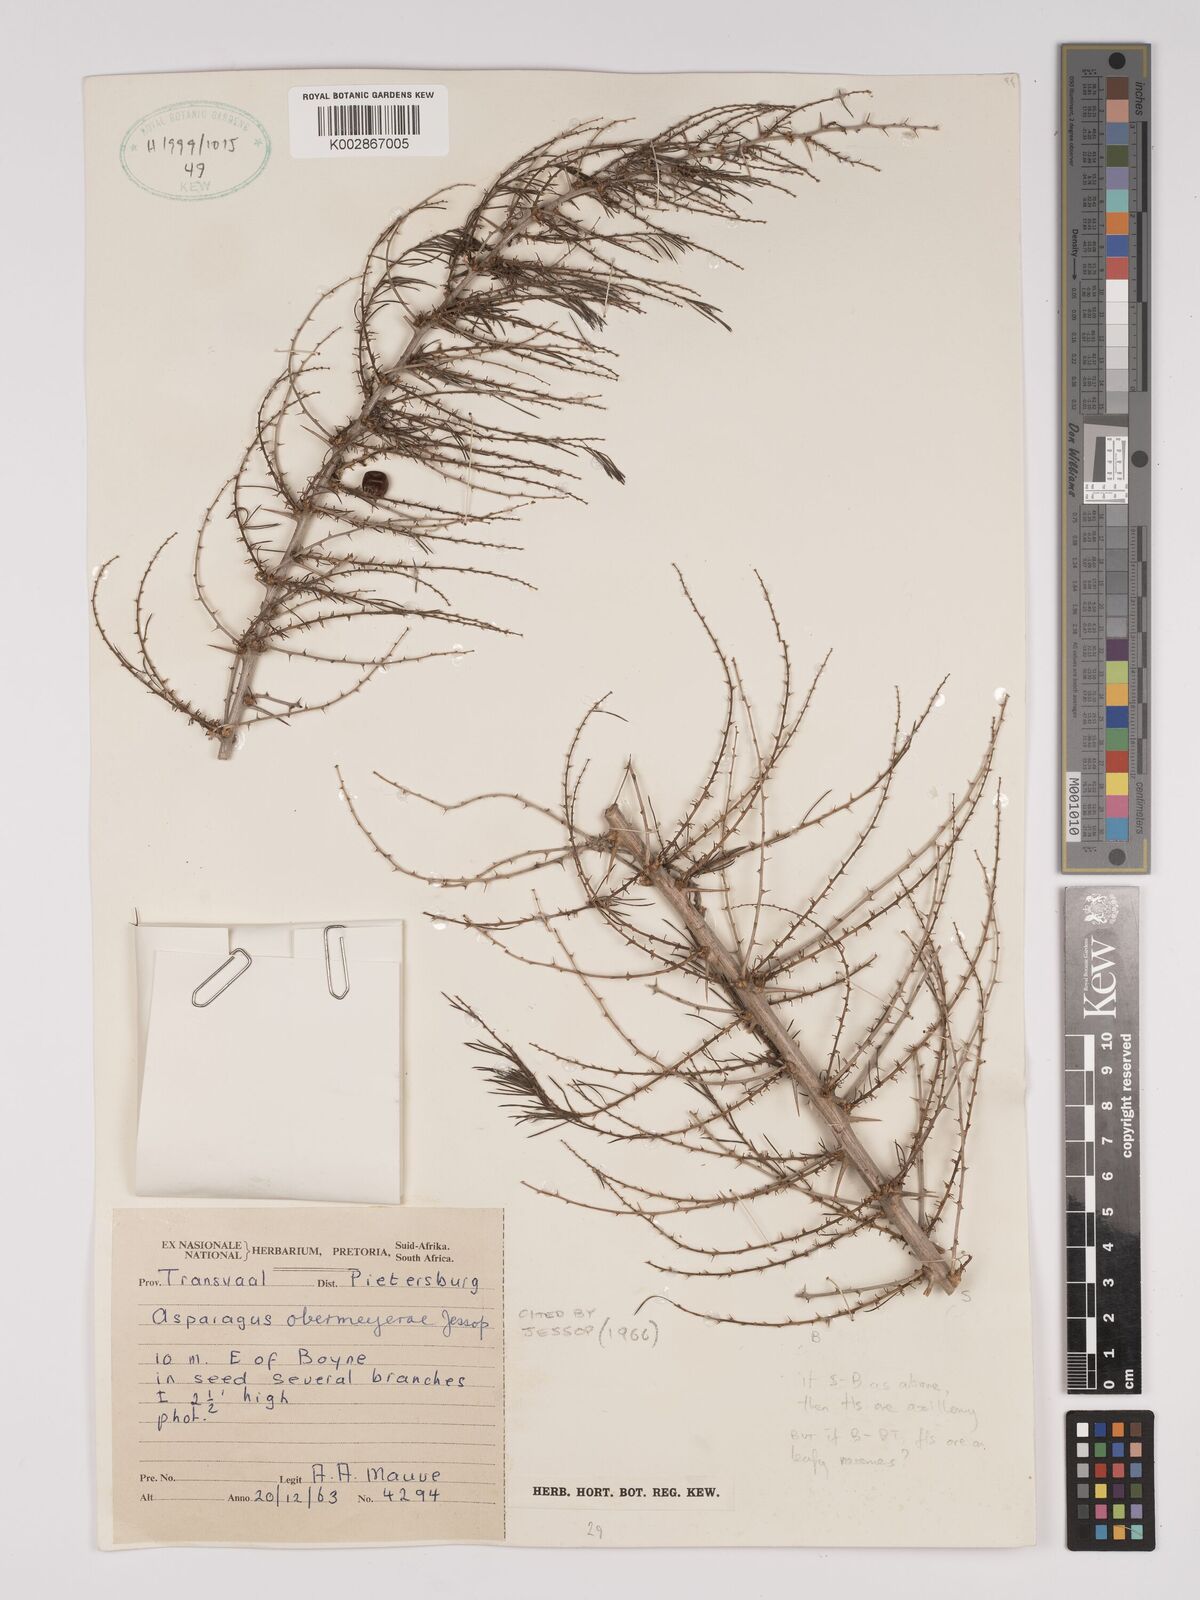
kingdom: Plantae
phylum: Tracheophyta
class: Liliopsida
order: Asparagales
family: Asparagaceae
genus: Asparagus
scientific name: Asparagus schroederi
